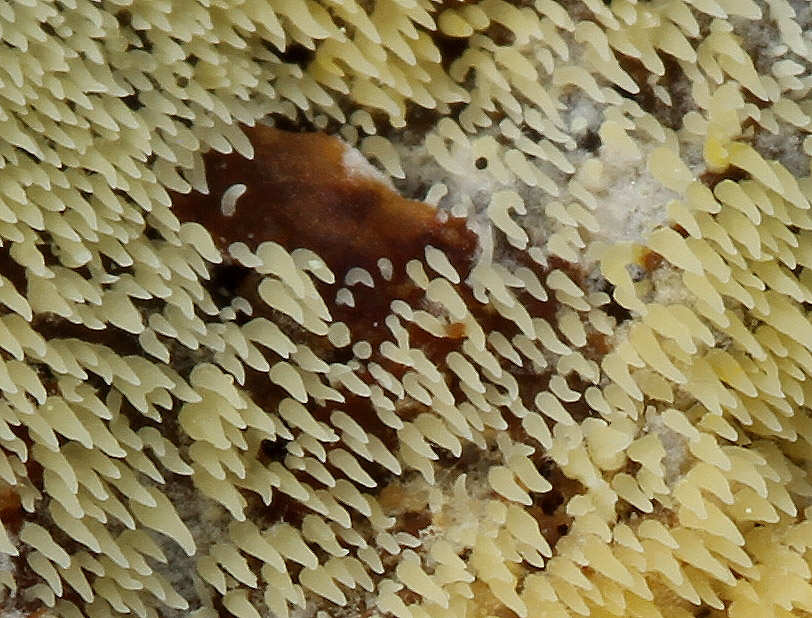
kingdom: Fungi
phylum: Basidiomycota
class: Agaricomycetes
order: Agaricales
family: Clavariaceae
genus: Mucronella
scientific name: Mucronella flava
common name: gul hængepig
